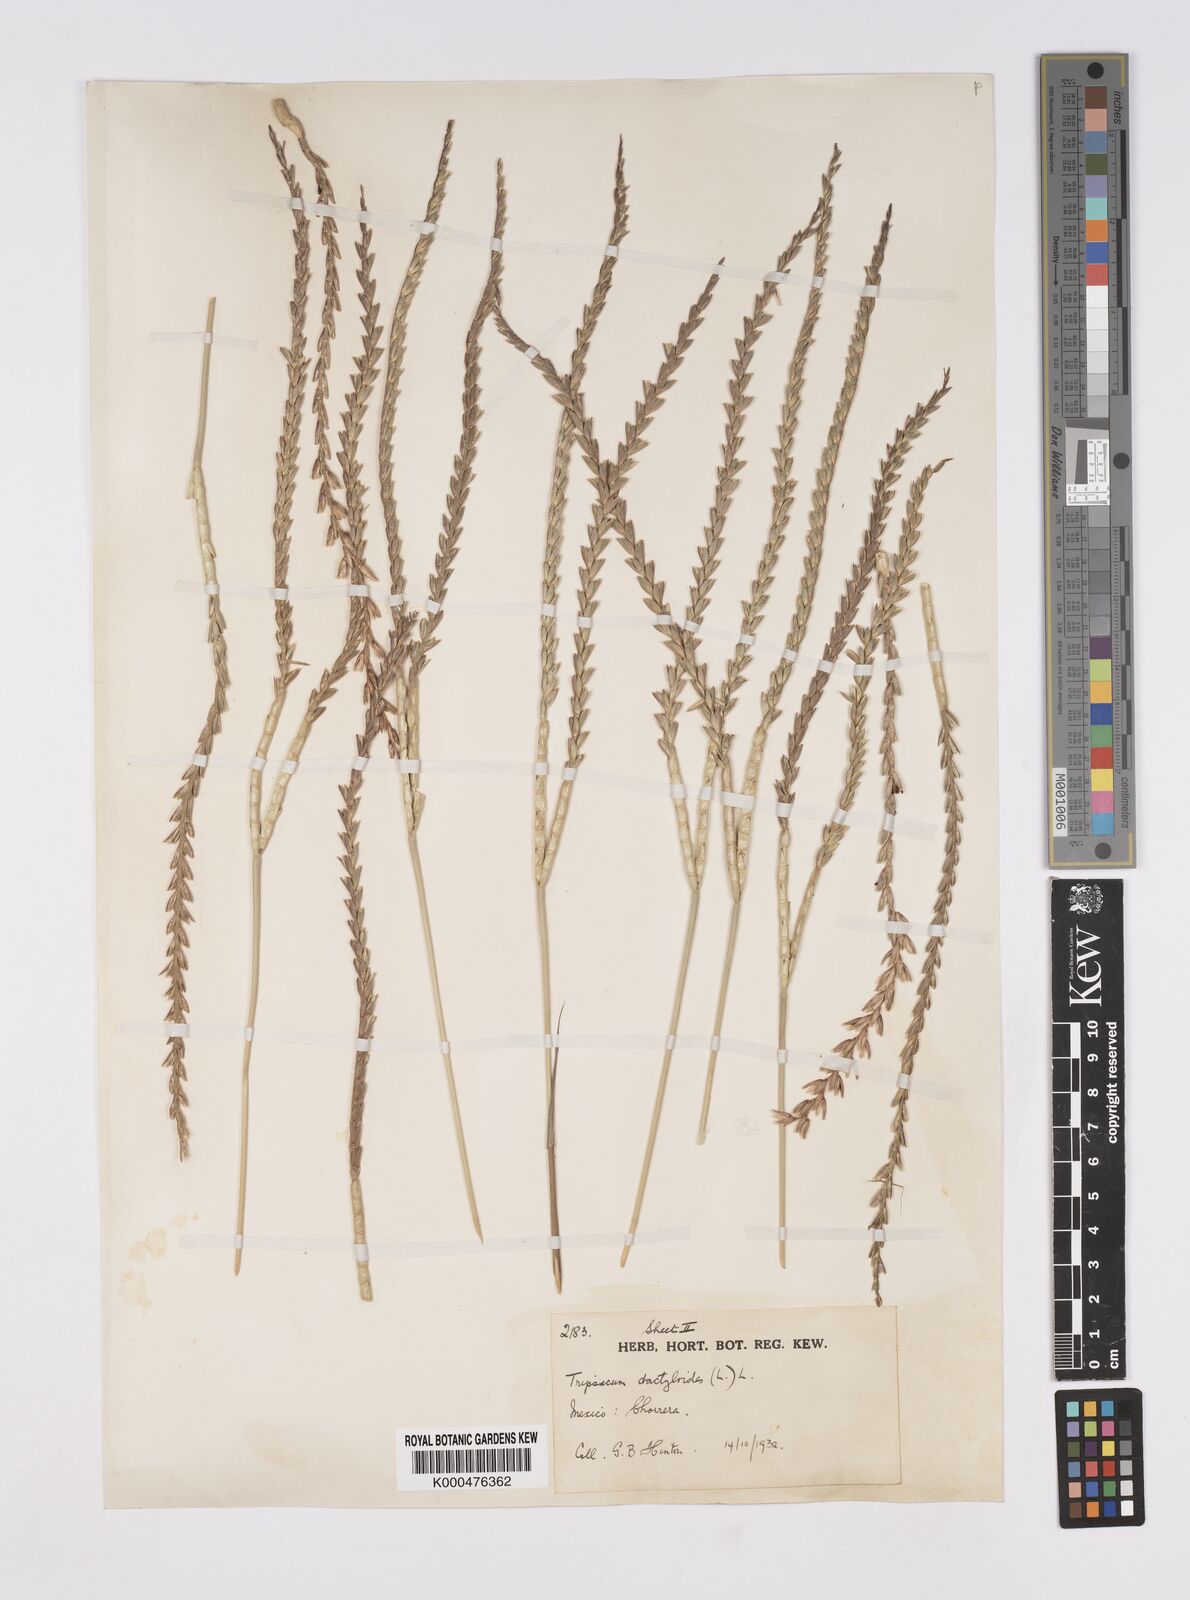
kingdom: Plantae
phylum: Tracheophyta
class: Liliopsida
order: Poales
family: Poaceae
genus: Tripsacum
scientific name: Tripsacum dactyloides
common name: Buffalo-grass
